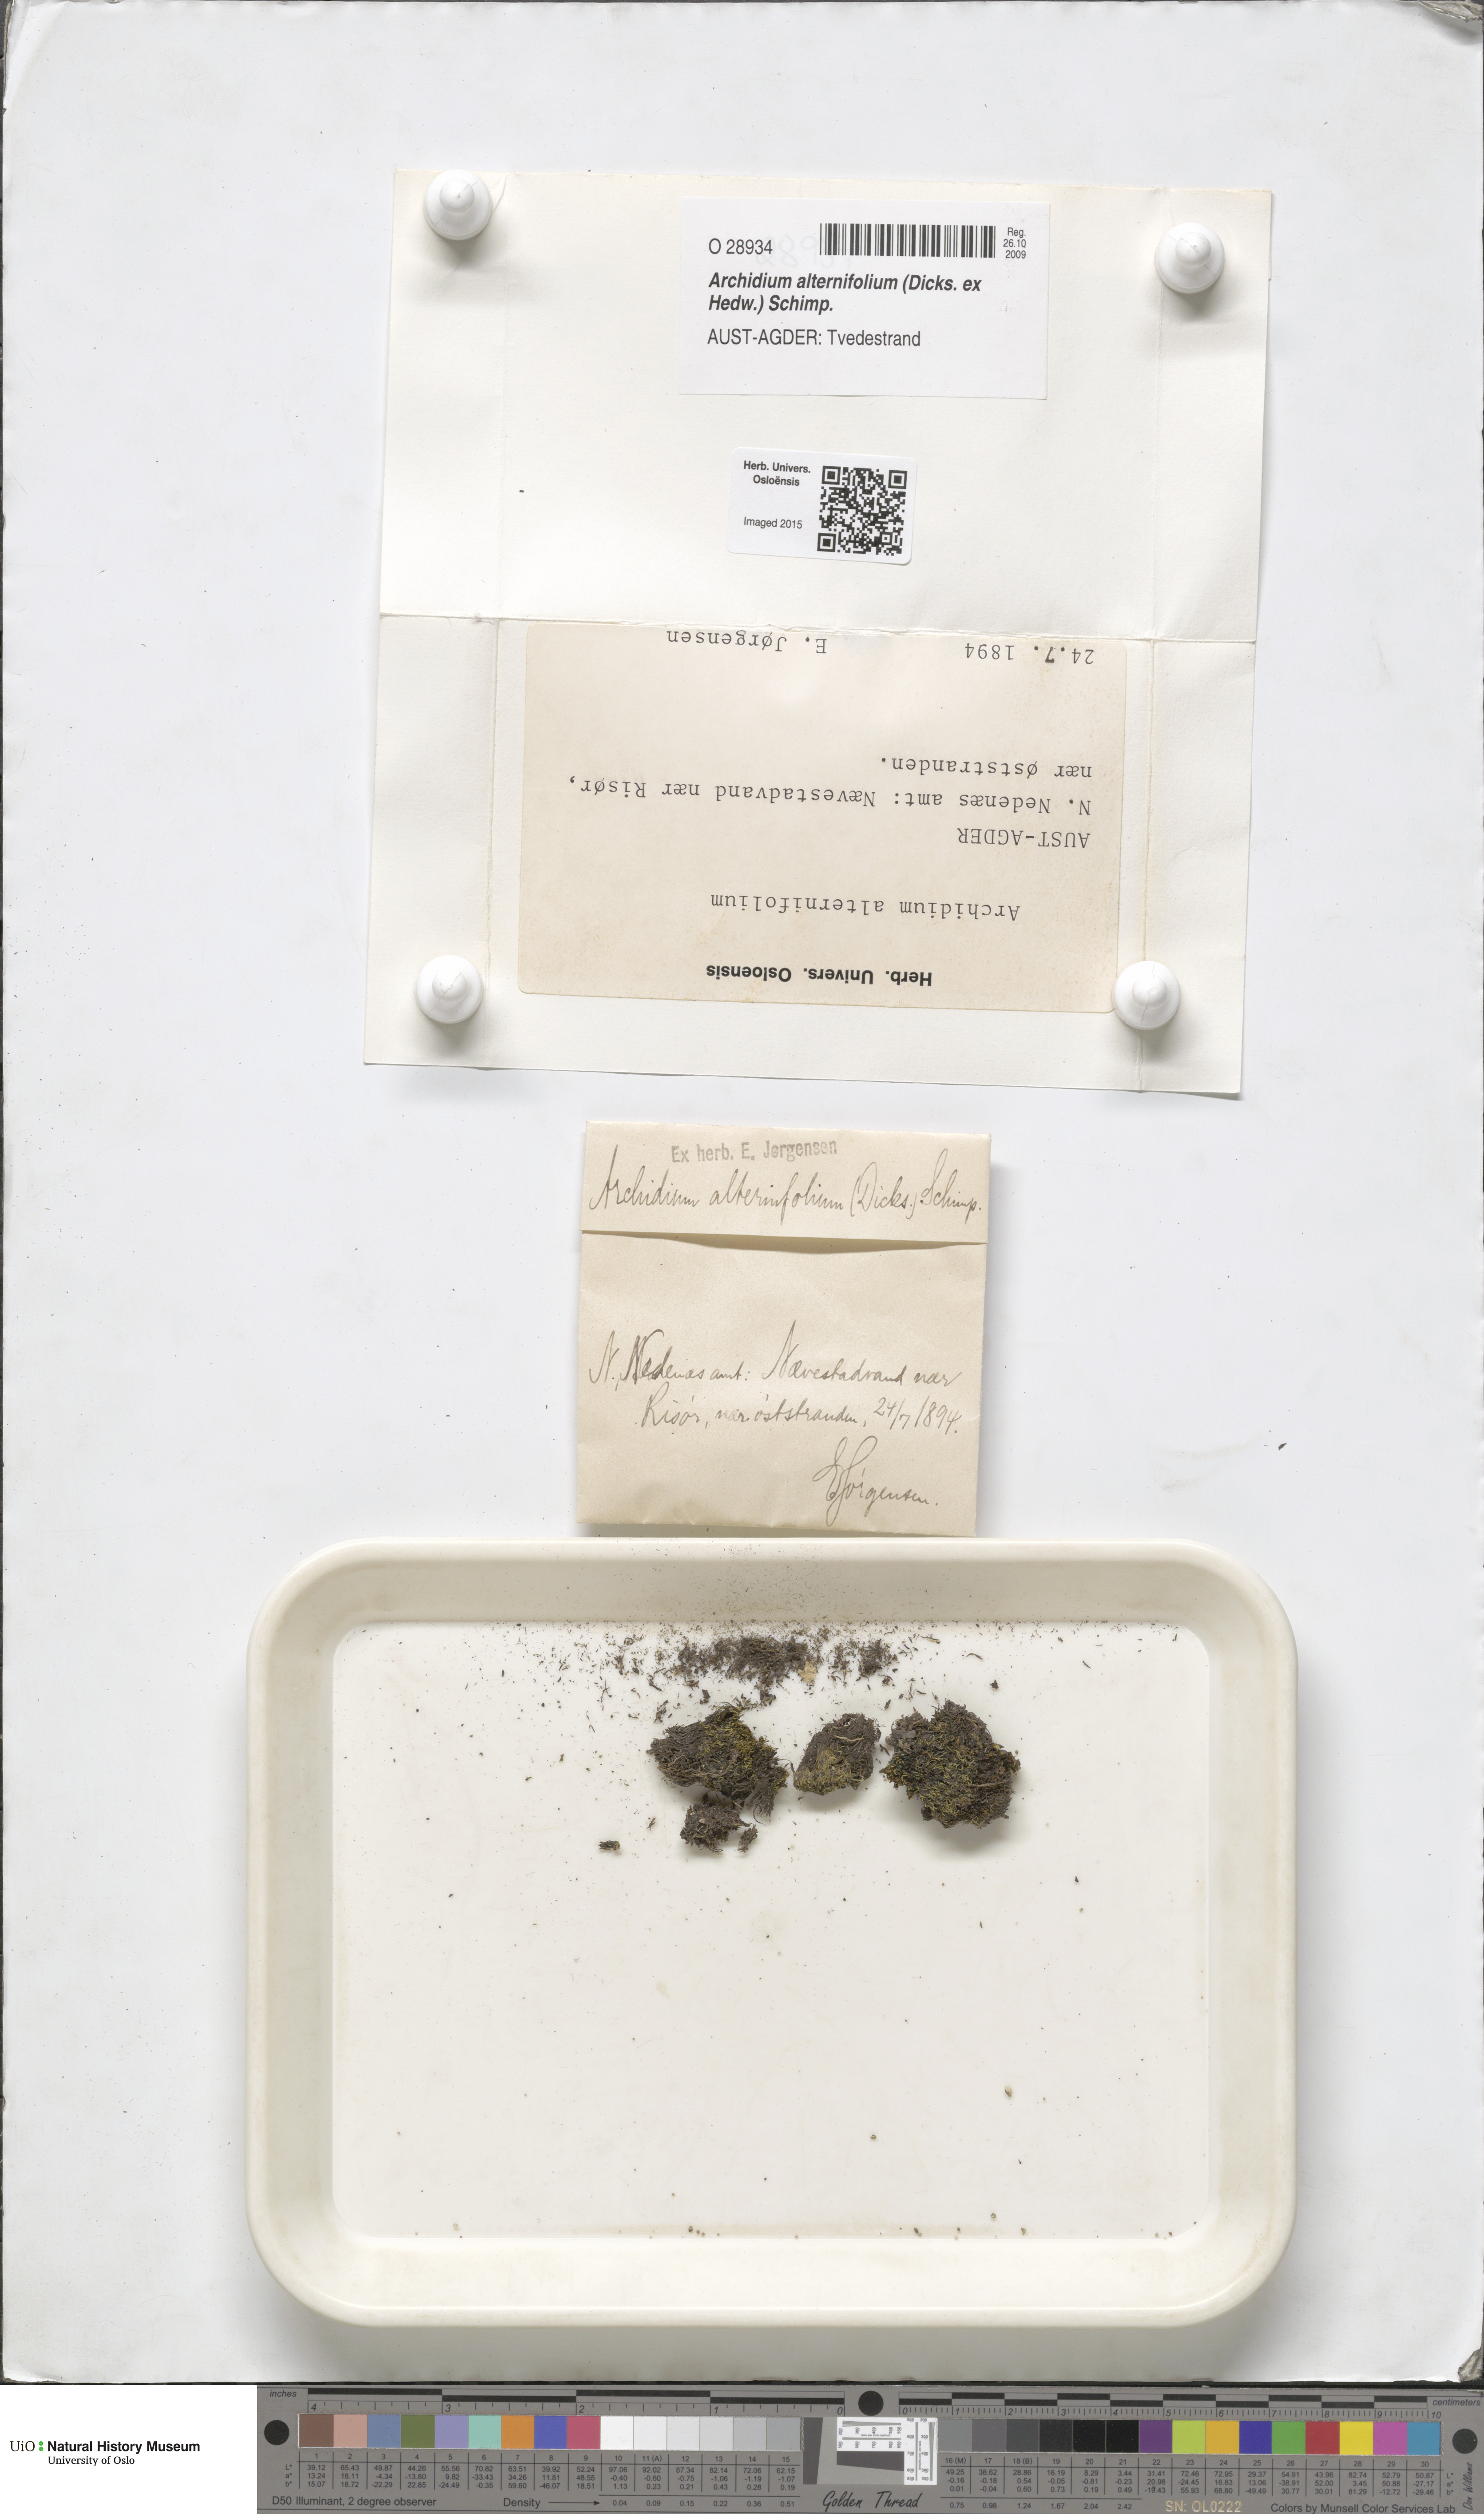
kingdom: Plantae
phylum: Bryophyta
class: Bryopsida
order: Archidiales
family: Archidiaceae
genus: Archidium
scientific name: Archidium alternifolium
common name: Clay earth-moss
